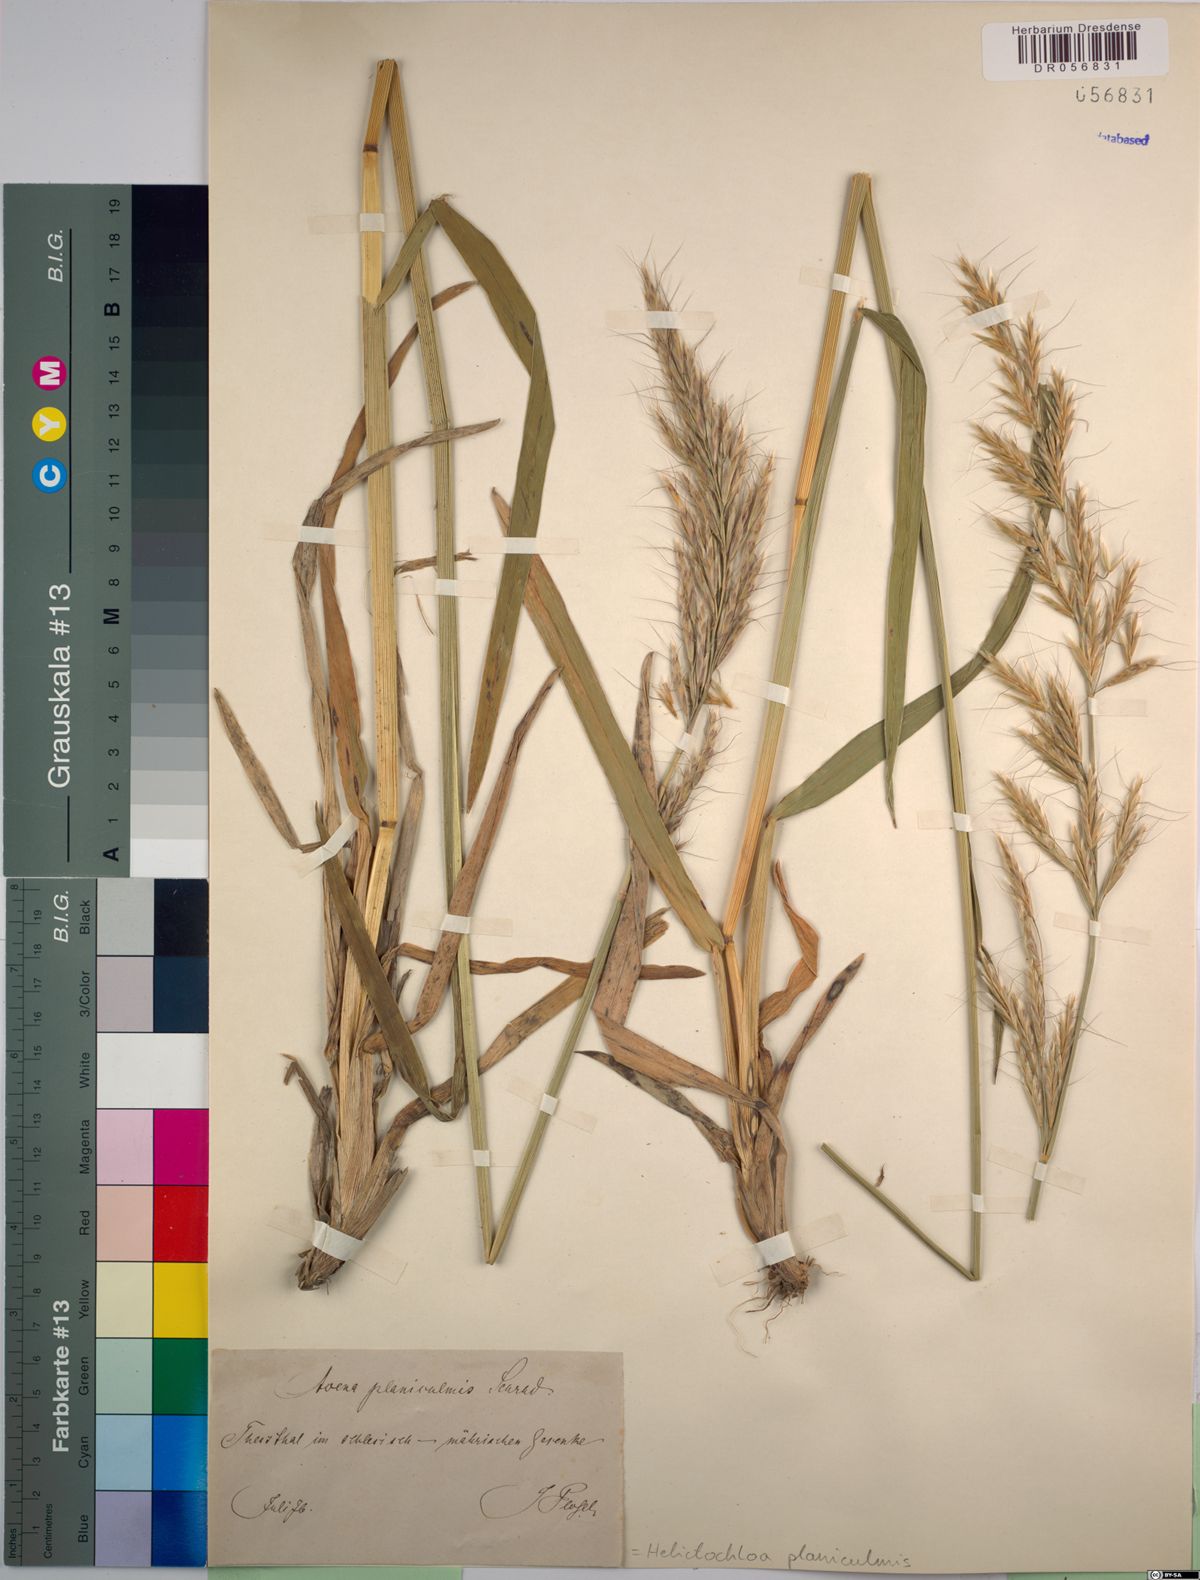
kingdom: Plantae
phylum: Tracheophyta
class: Liliopsida
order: Poales
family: Poaceae
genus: Helictochloa
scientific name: Helictochloa planiculmis
